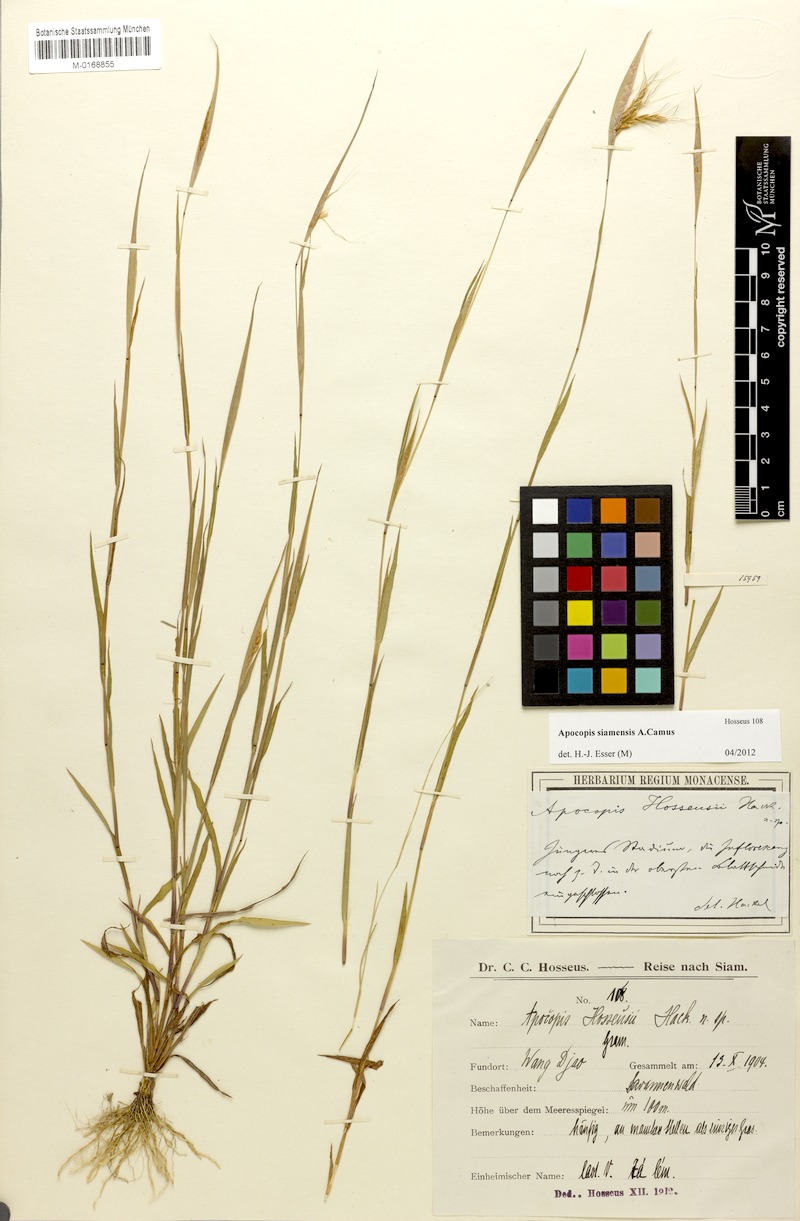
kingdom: Plantae
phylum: Tracheophyta
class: Liliopsida
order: Poales
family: Poaceae
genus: Apocopis
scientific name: Apocopis siamensis
